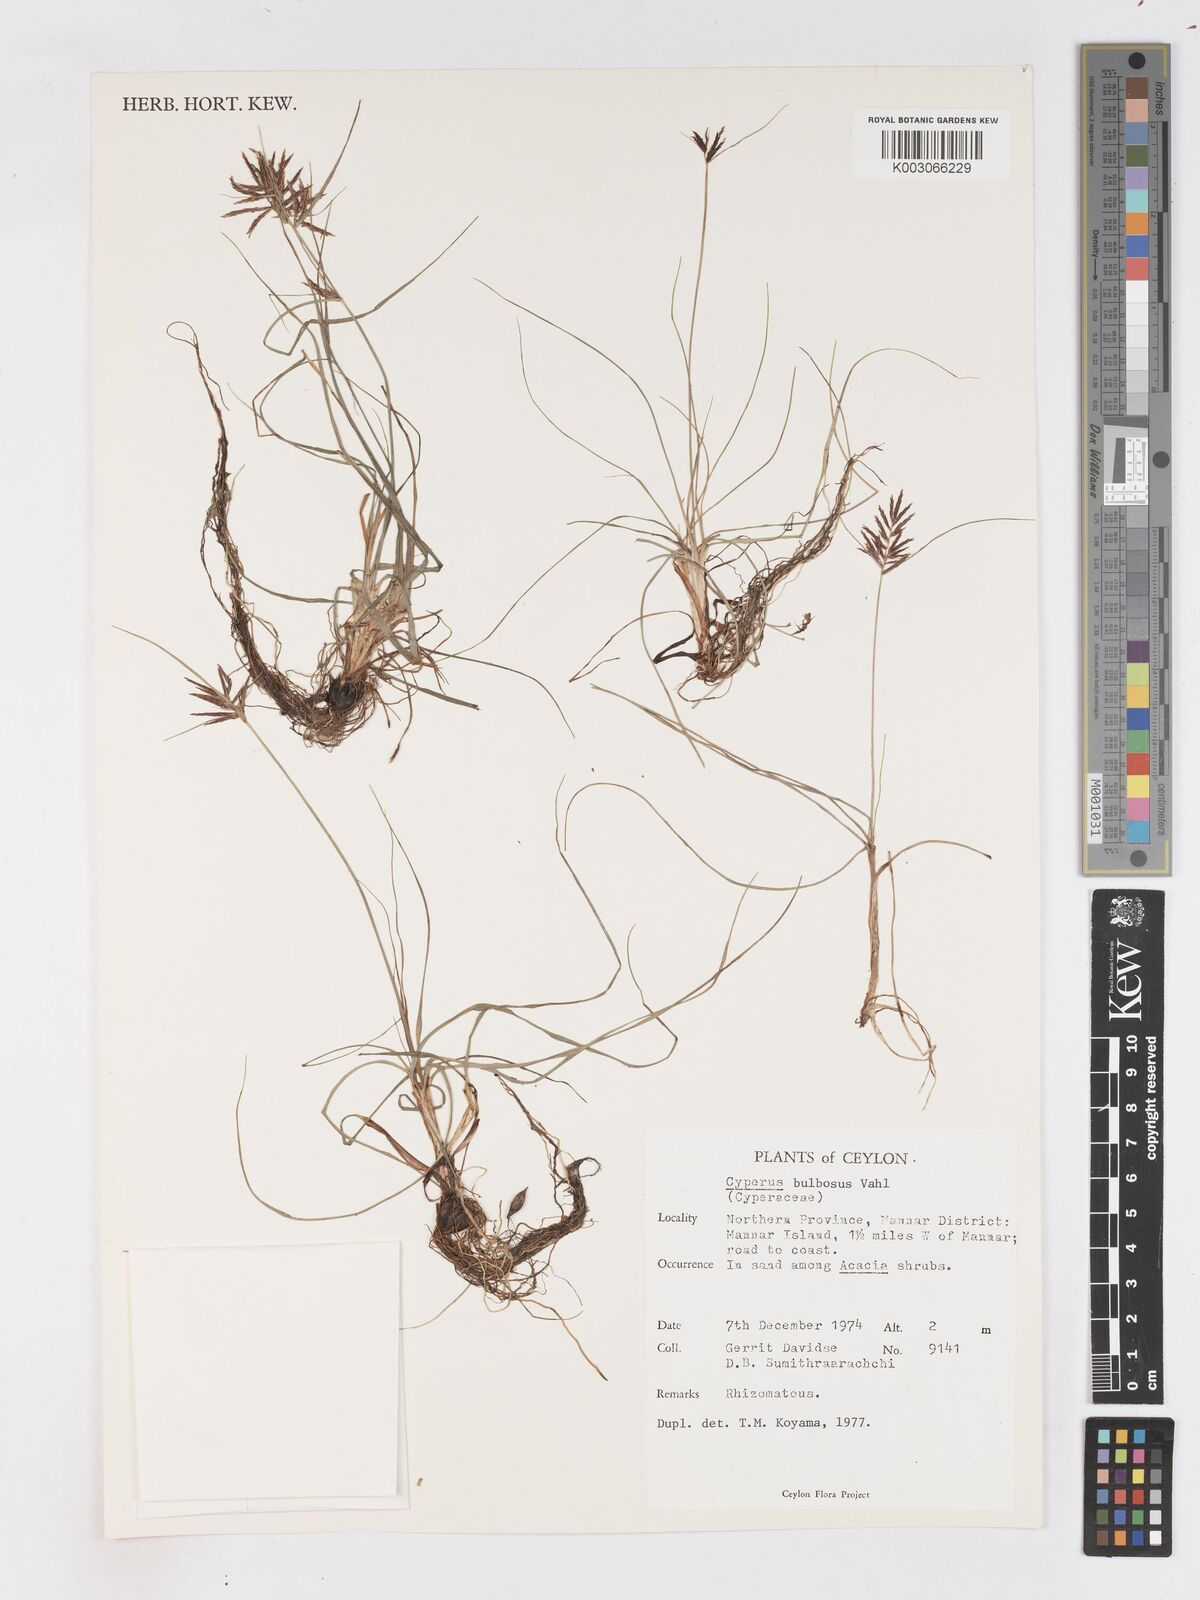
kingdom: Plantae
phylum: Tracheophyta
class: Liliopsida
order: Poales
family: Cyperaceae
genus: Cyperus
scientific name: Cyperus bulbosus
